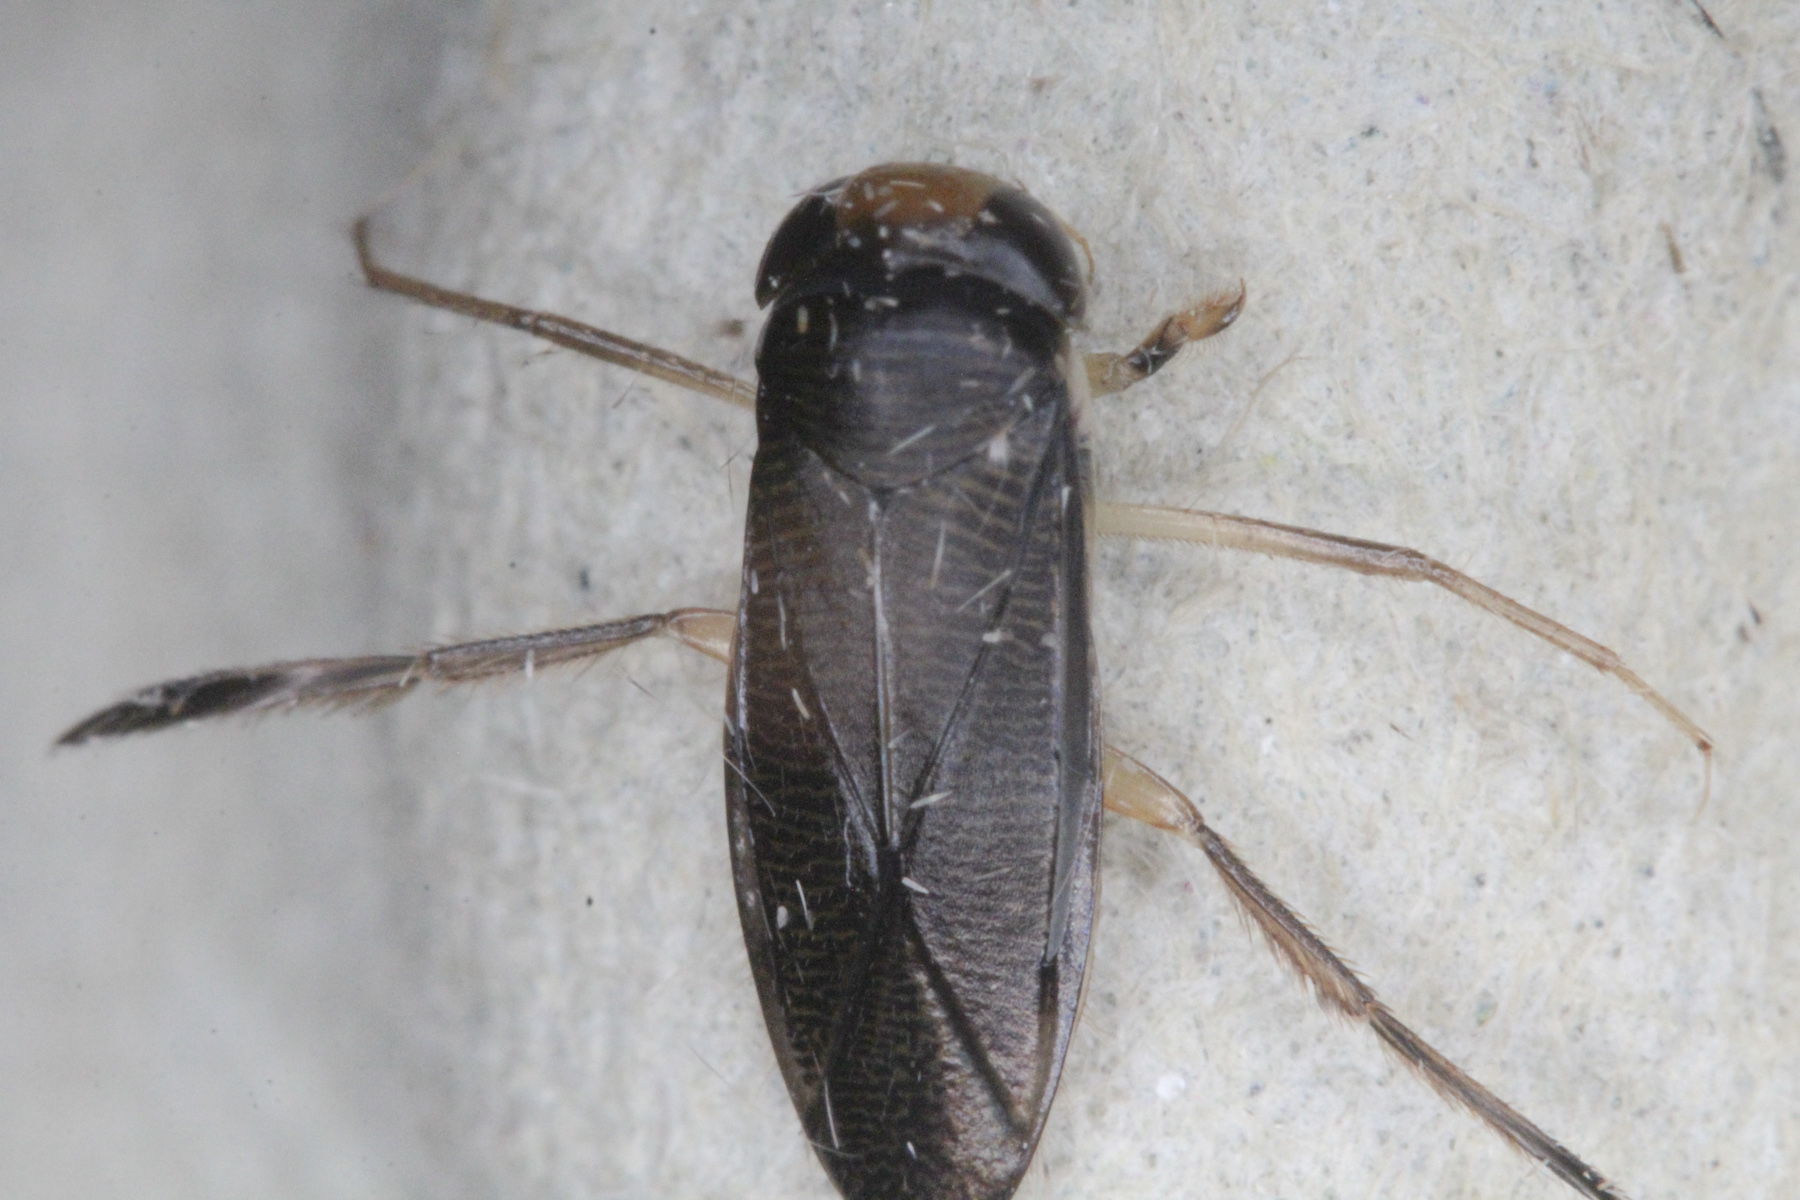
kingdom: Animalia
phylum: Arthropoda
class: Insecta
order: Hemiptera
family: Corixidae
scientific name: Corixidae
